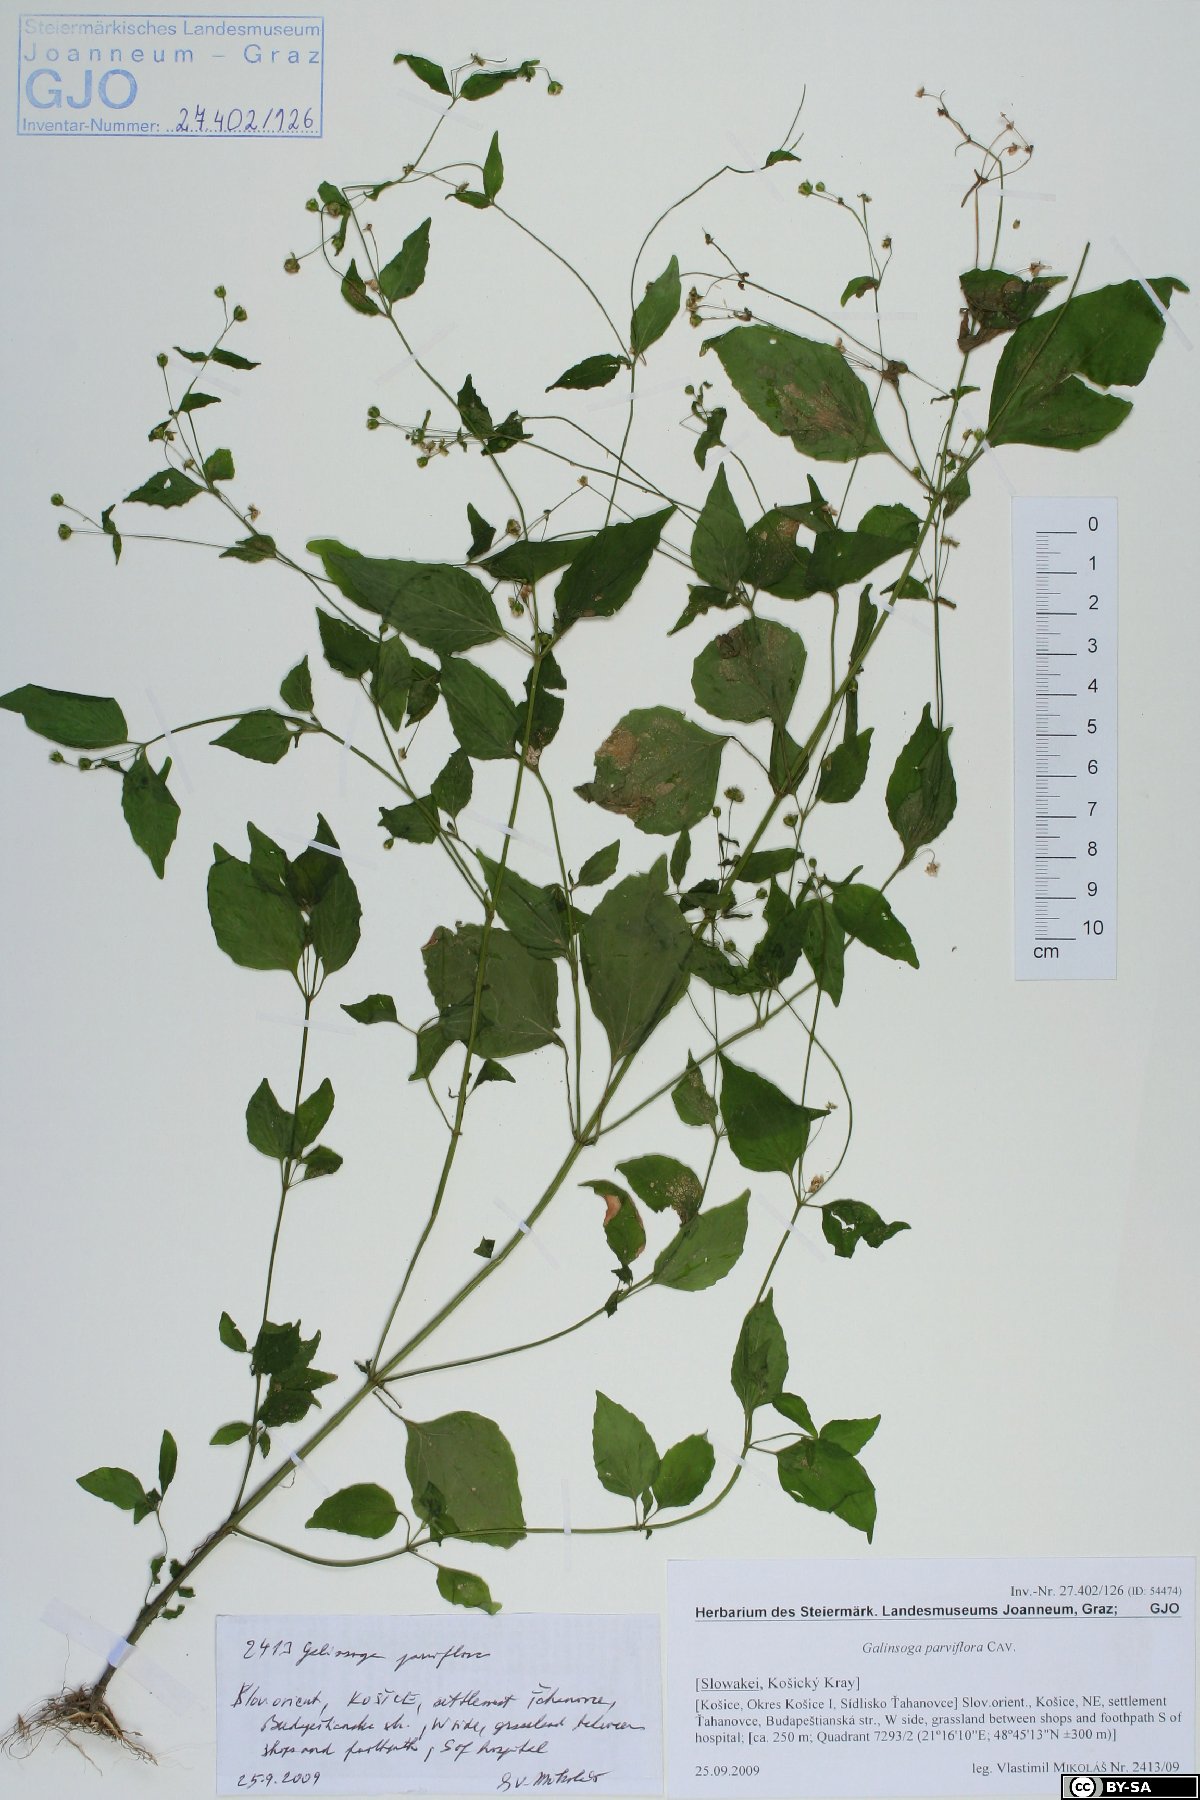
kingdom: Plantae
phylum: Tracheophyta
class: Magnoliopsida
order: Asterales
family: Asteraceae
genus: Galinsoga
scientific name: Galinsoga parviflora
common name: Gallant soldier
